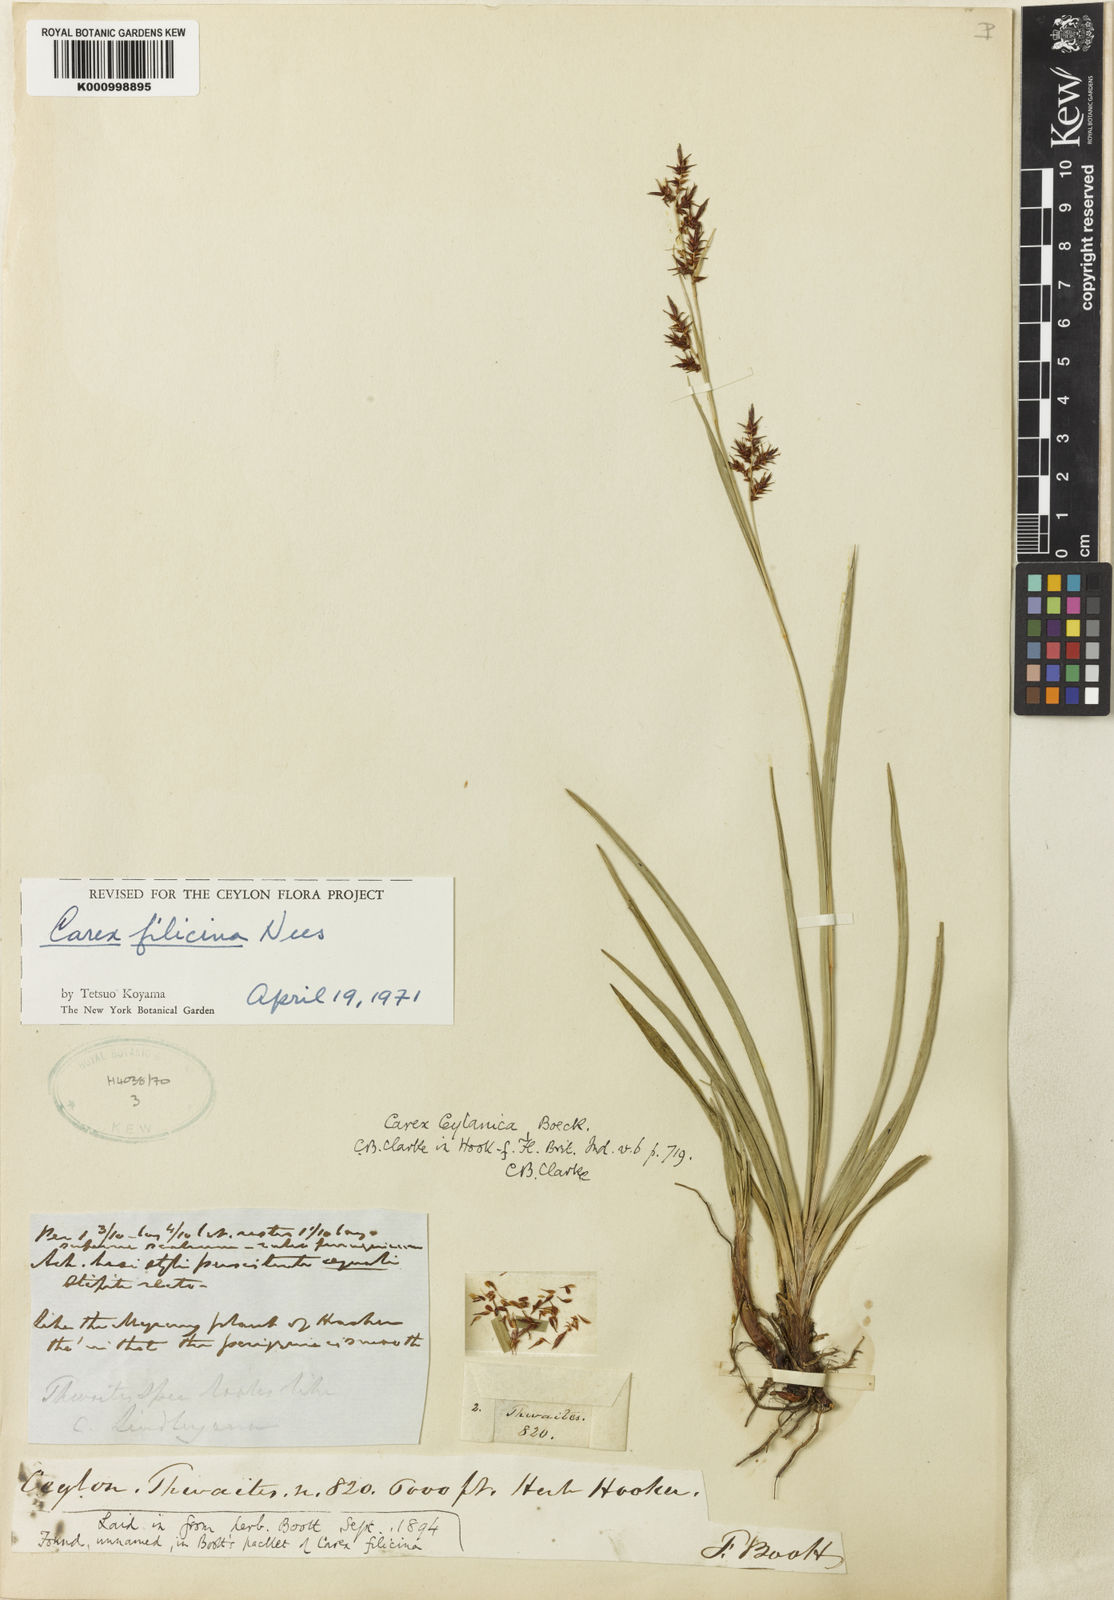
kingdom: Plantae
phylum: Tracheophyta
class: Liliopsida
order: Poales
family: Cyperaceae
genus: Carex
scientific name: Carex ceylanica
